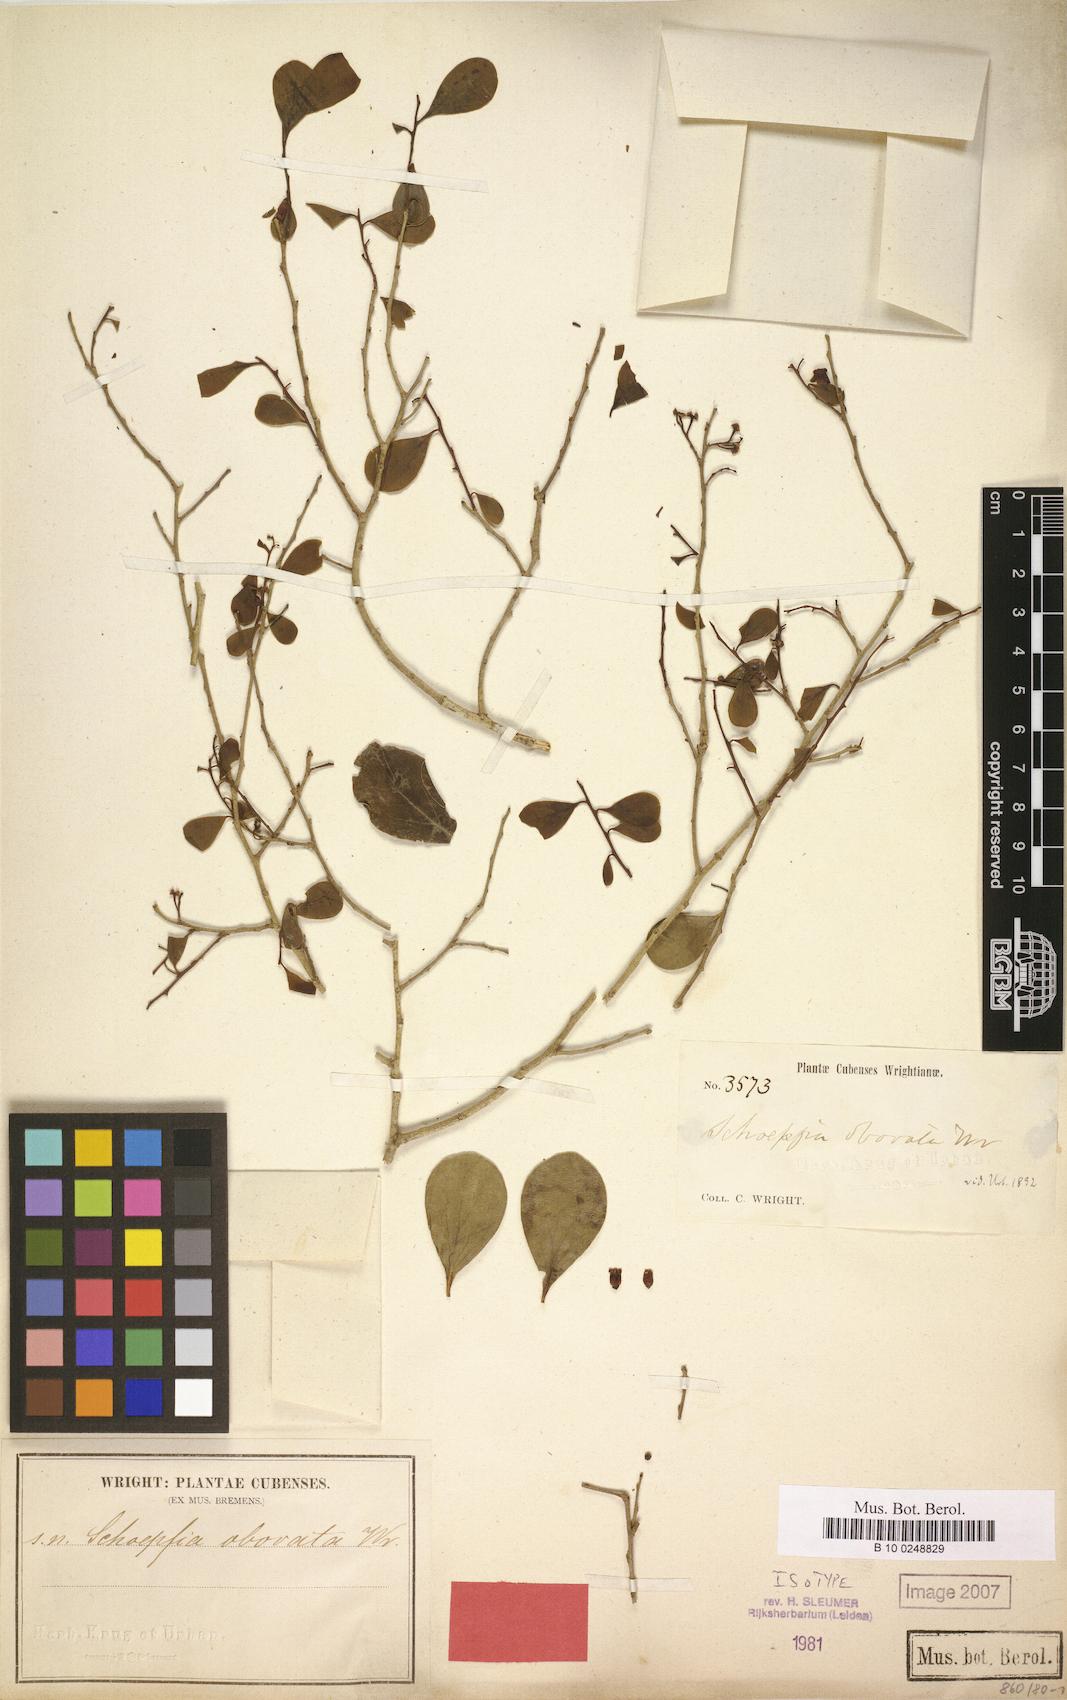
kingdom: Plantae
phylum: Tracheophyta
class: Magnoliopsida
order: Santalales
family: Schoepfiaceae
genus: Schoepfia
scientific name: Schoepfia obovata
